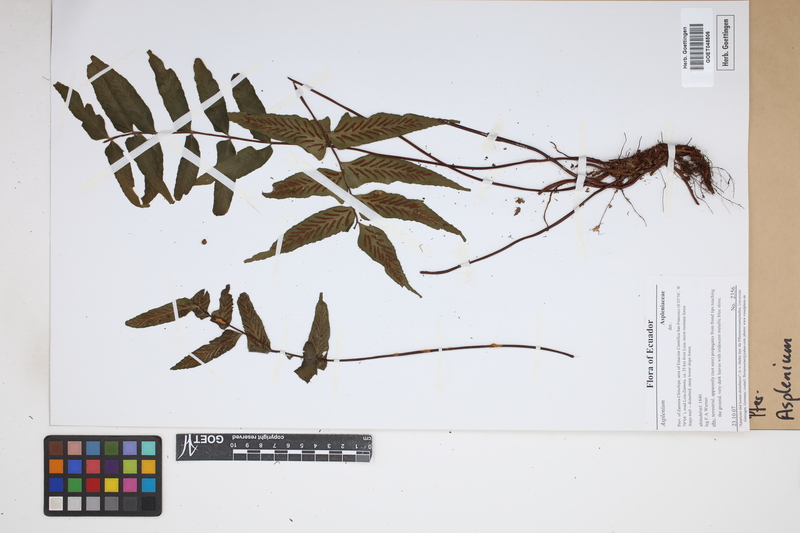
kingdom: Plantae
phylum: Tracheophyta
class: Polypodiopsida
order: Polypodiales
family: Aspleniaceae
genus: Asplenium
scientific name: Asplenium
